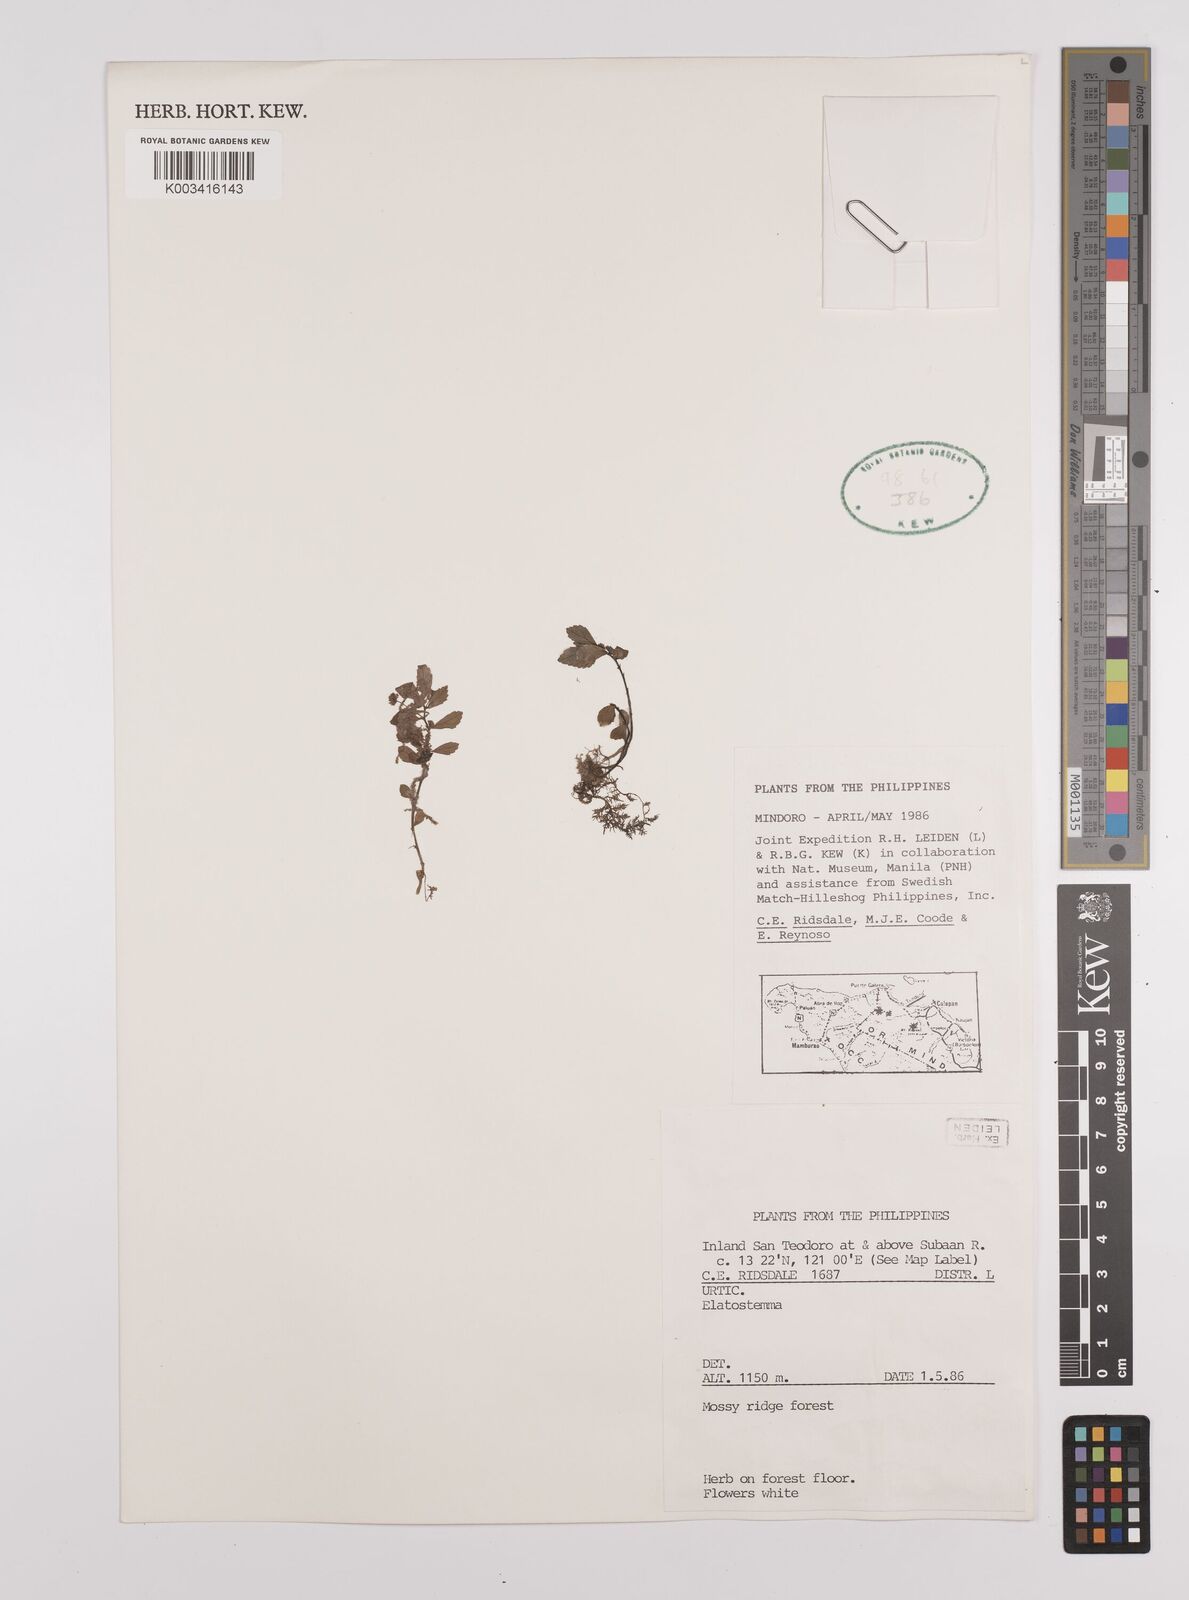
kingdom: Plantae
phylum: Tracheophyta
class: Magnoliopsida
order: Rosales
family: Urticaceae
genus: Elatostema
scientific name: Elatostema
